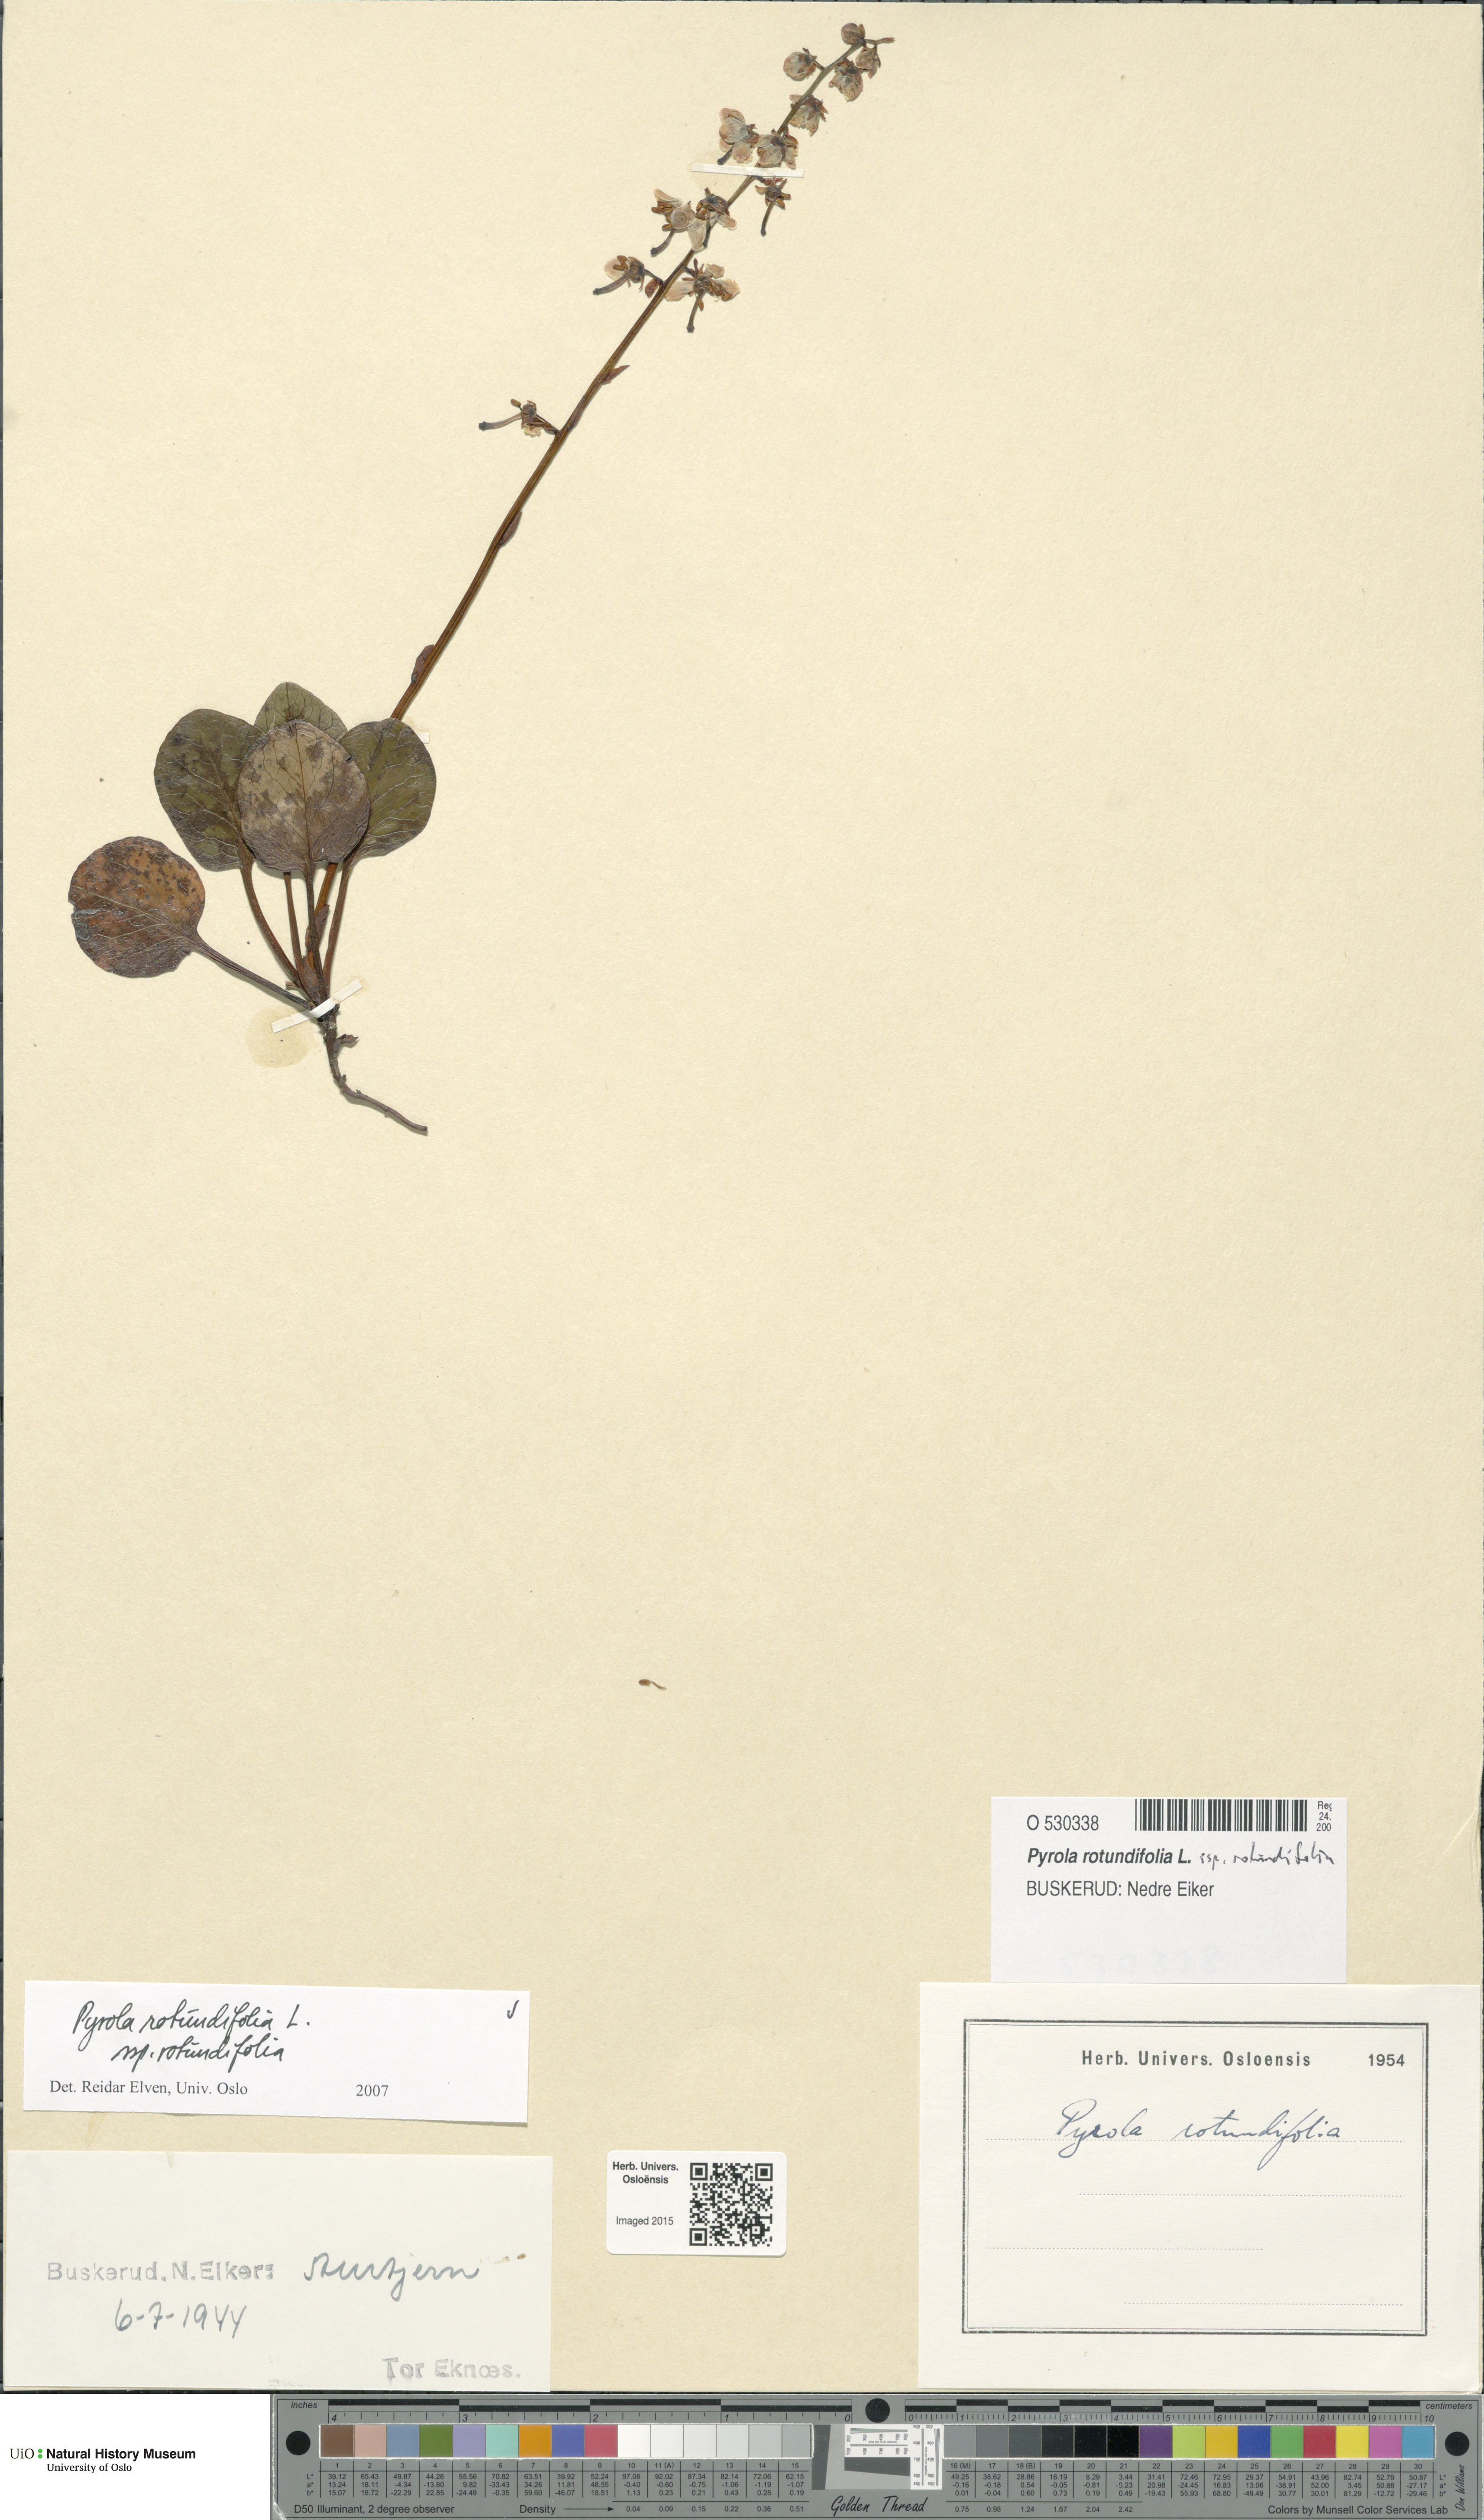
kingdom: Plantae
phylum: Tracheophyta
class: Magnoliopsida
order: Ericales
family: Ericaceae
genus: Pyrola
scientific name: Pyrola rotundifolia
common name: Round-leaved wintergreen
